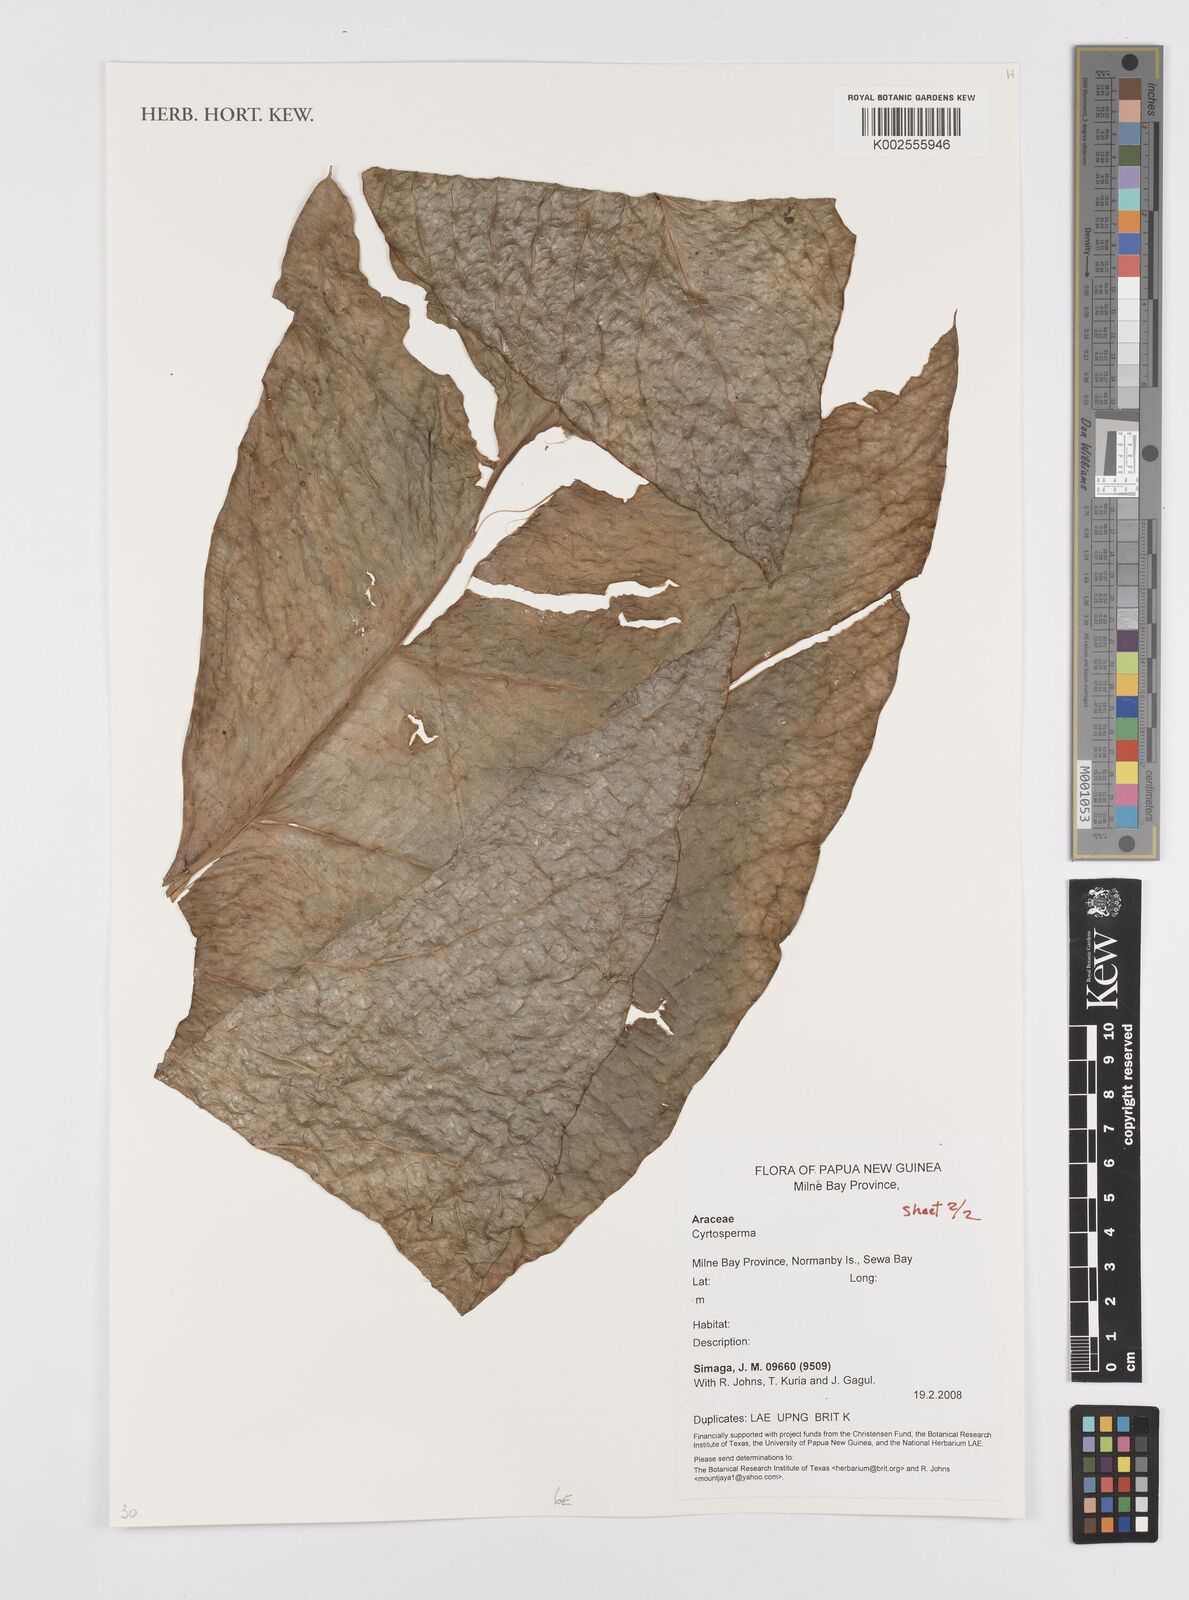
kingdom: Plantae
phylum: Tracheophyta
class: Liliopsida
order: Alismatales
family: Araceae
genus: Cyrtosperma
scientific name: Cyrtosperma
